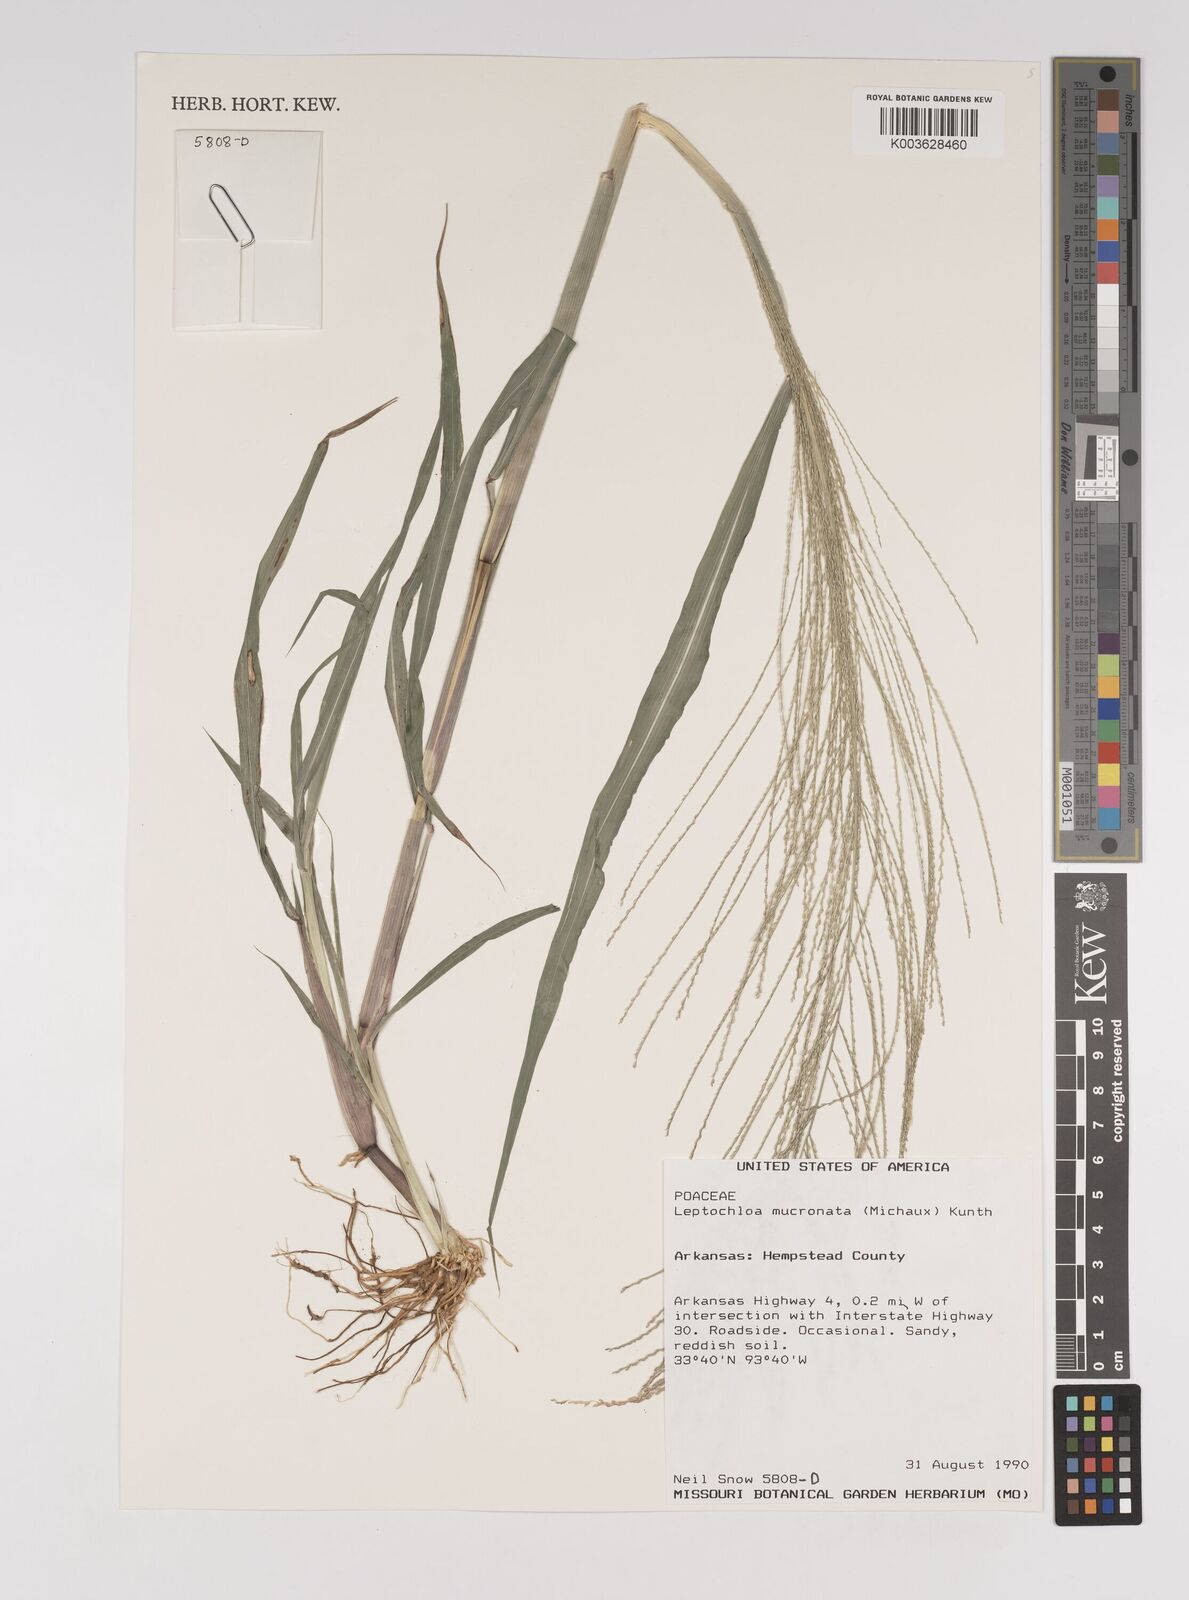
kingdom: Plantae
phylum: Tracheophyta
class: Liliopsida
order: Poales
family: Poaceae
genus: Leptochloa
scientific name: Leptochloa panicea
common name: Mucronate sprangletop
